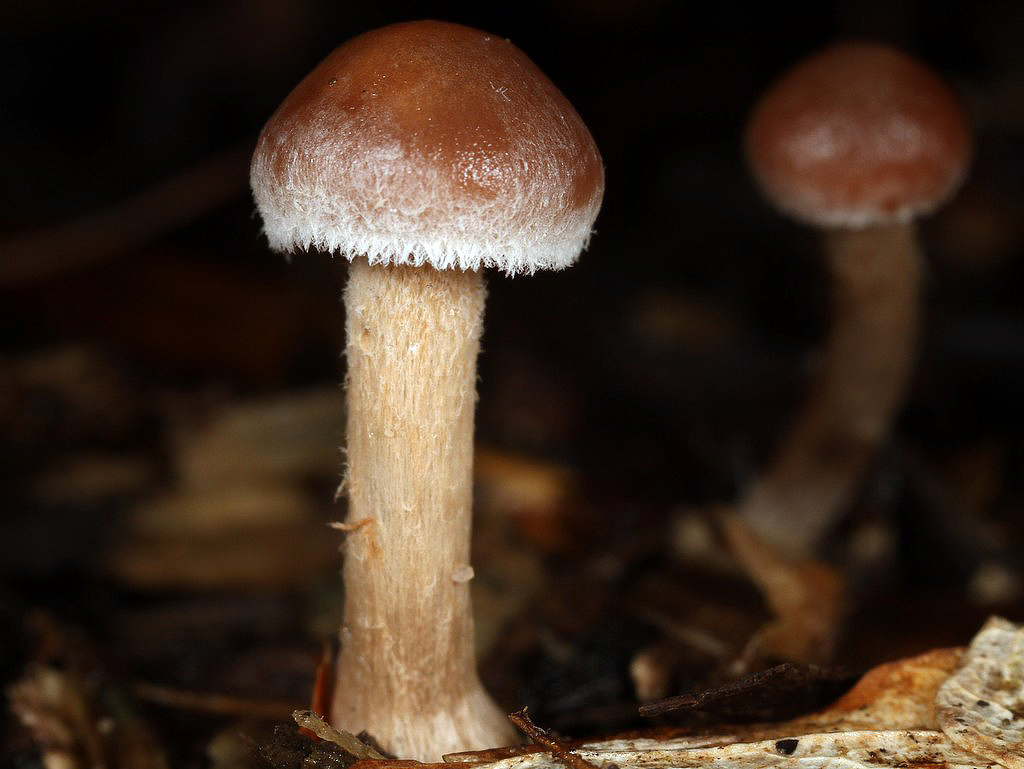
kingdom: Fungi
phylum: Basidiomycota
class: Agaricomycetes
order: Agaricales
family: Strophariaceae
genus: Deconica
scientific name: Deconica phyllogena
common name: spættet stråhat
